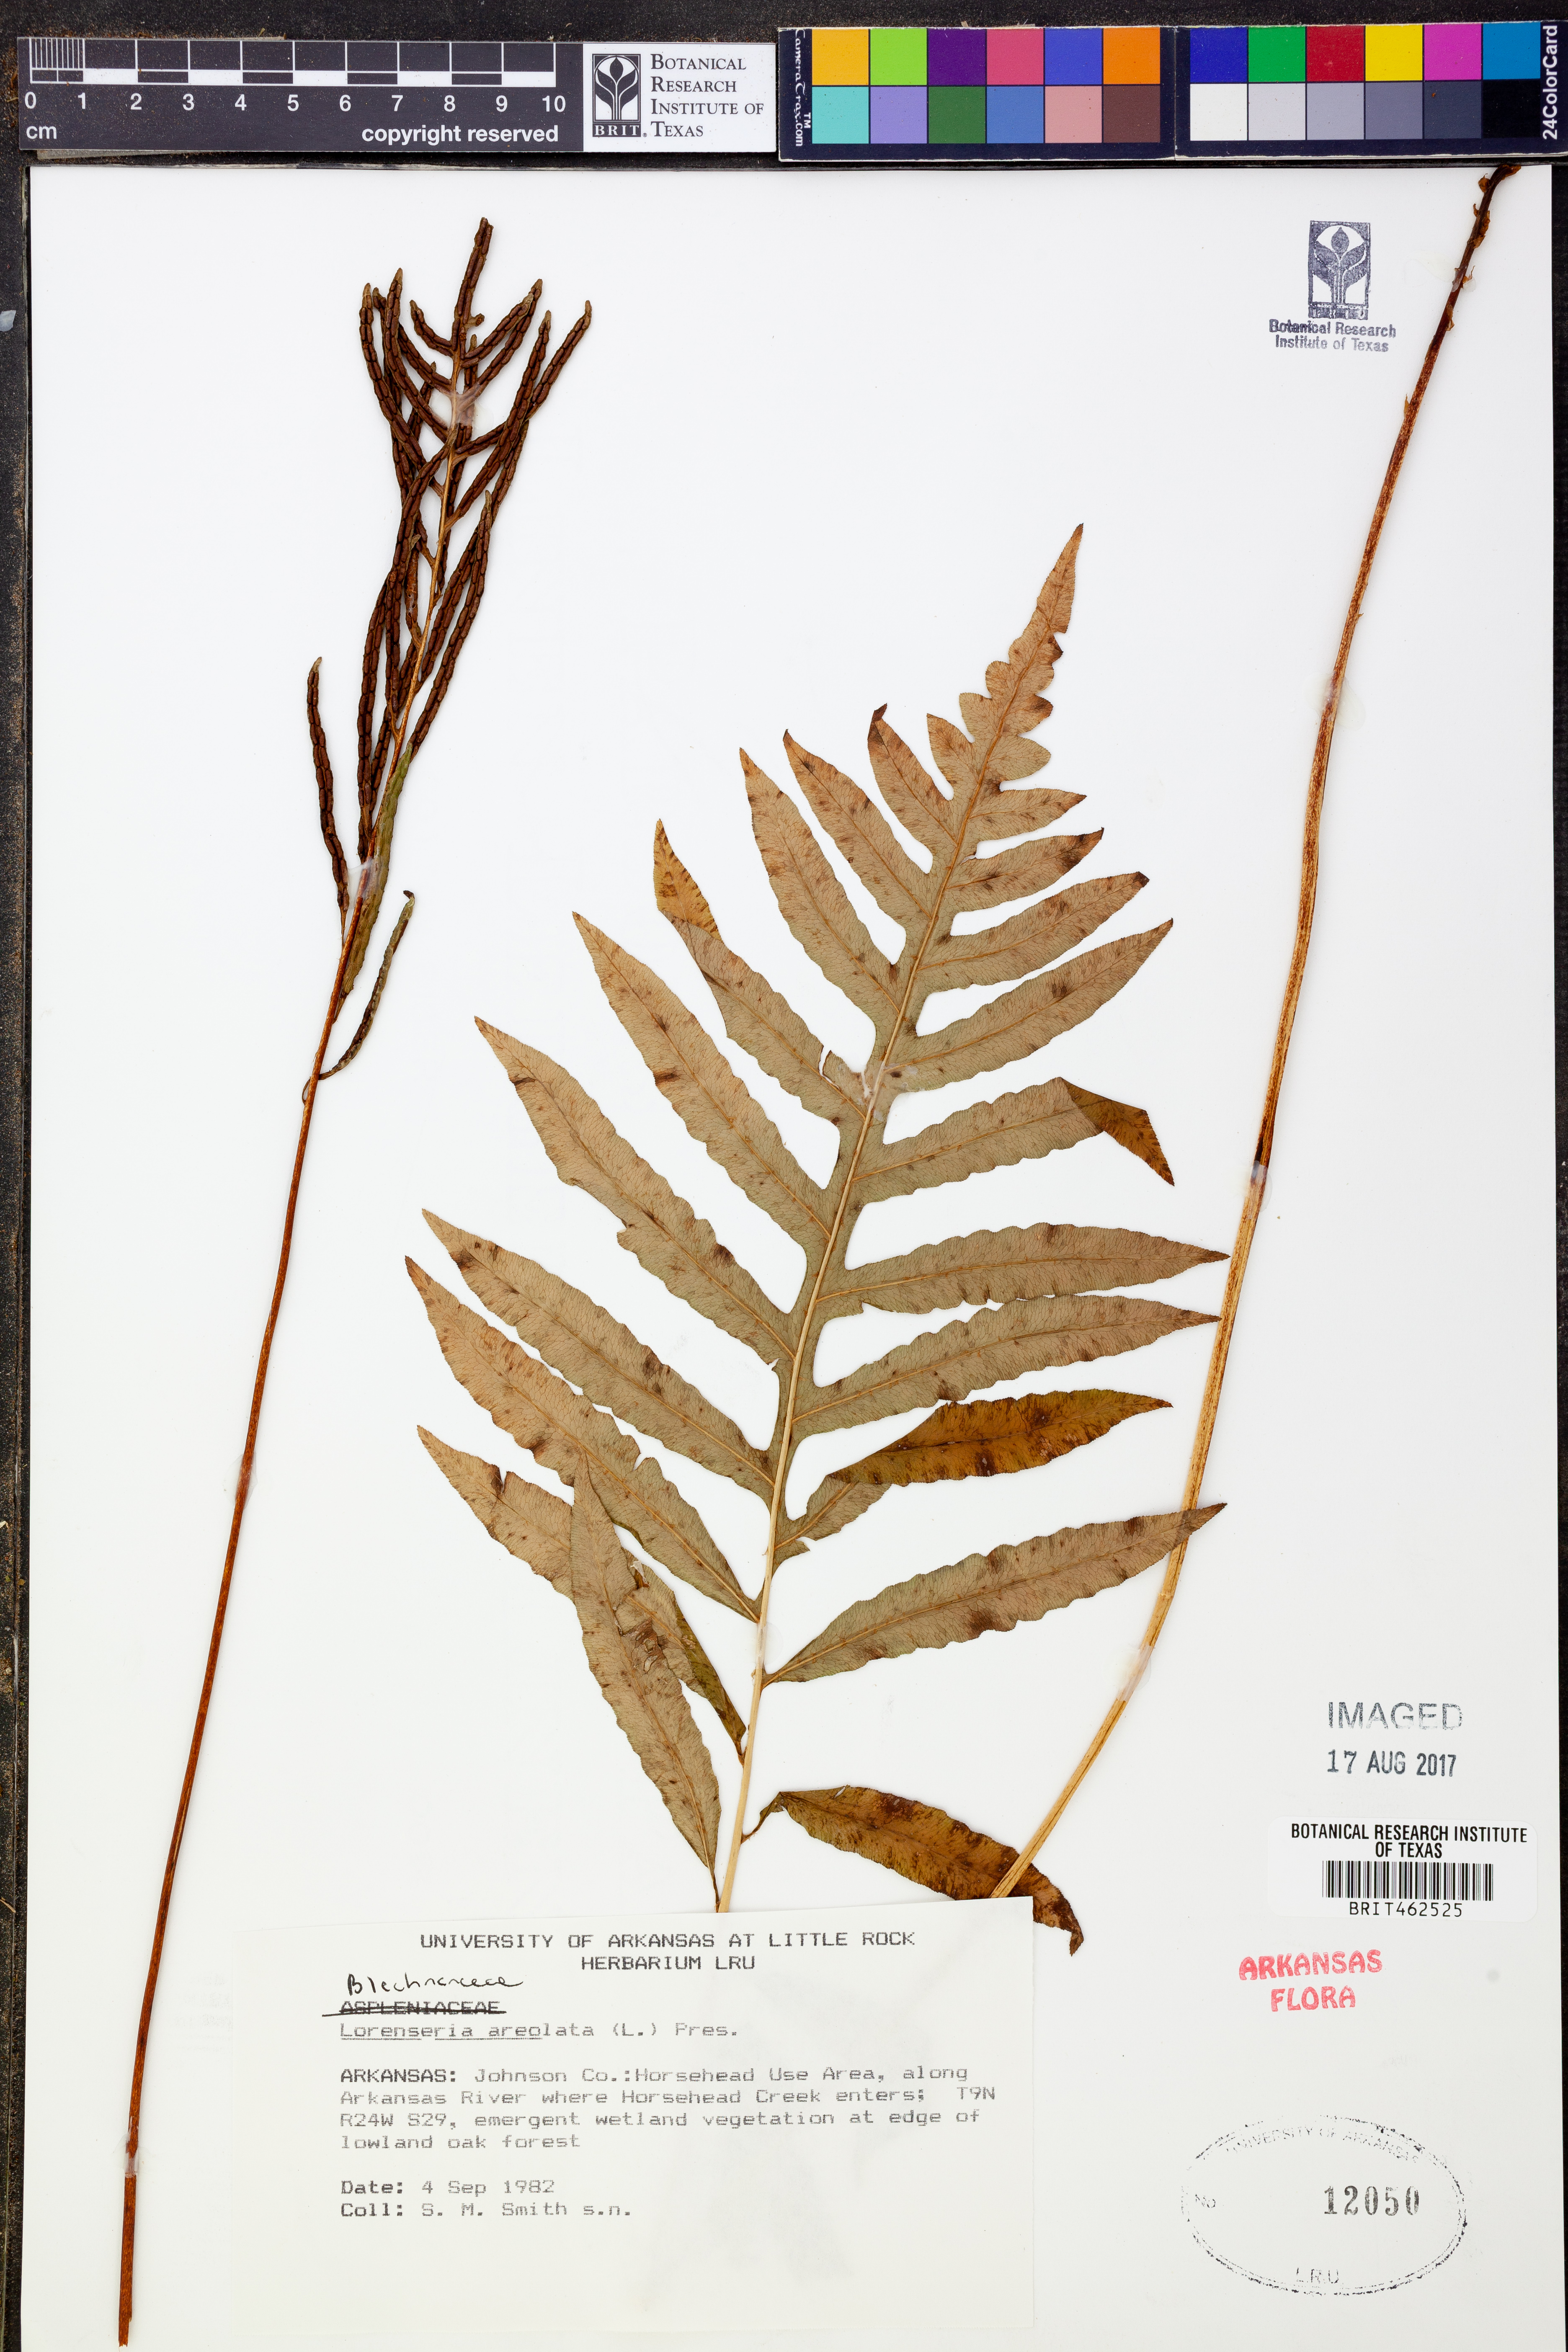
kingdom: Plantae
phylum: Tracheophyta
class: Polypodiopsida
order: Polypodiales
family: Blechnaceae
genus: Lorinseria
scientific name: Lorinseria areolata
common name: Dwarf chain fern
